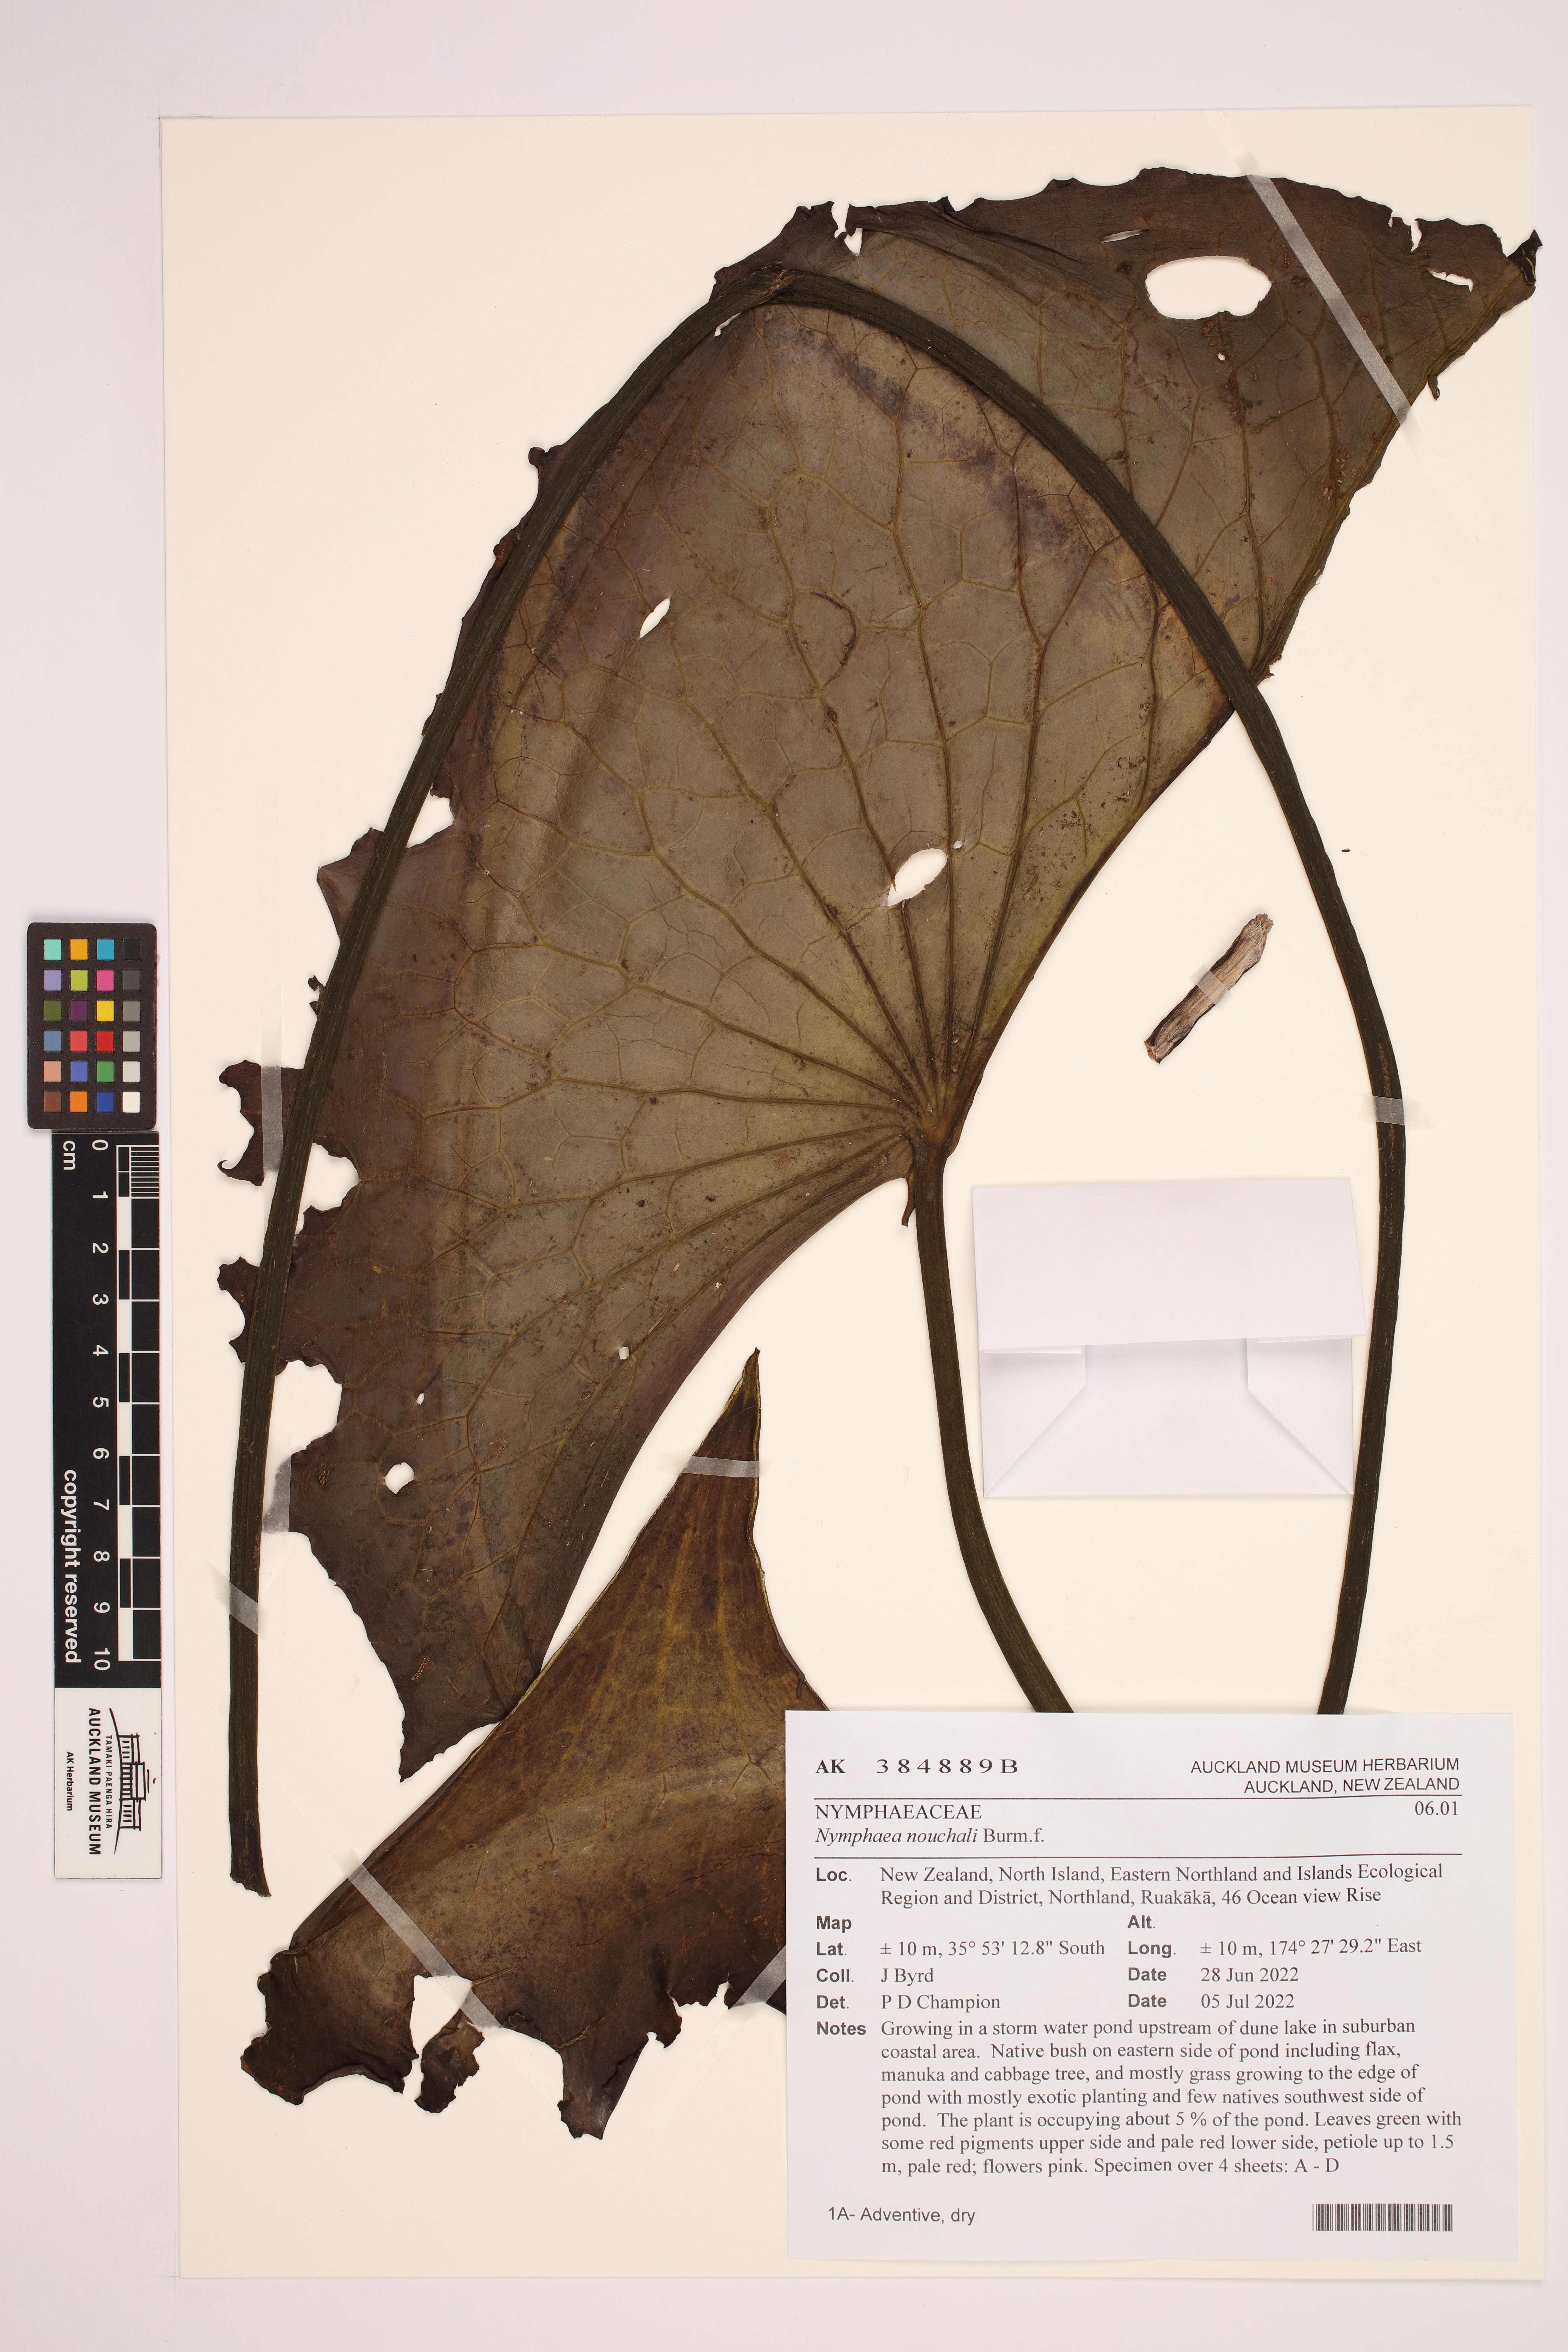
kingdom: Plantae
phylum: Tracheophyta
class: Magnoliopsida
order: Nymphaeales
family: Nymphaeaceae
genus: Nymphaea
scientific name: Nymphaea nouchali
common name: Blue lotus
